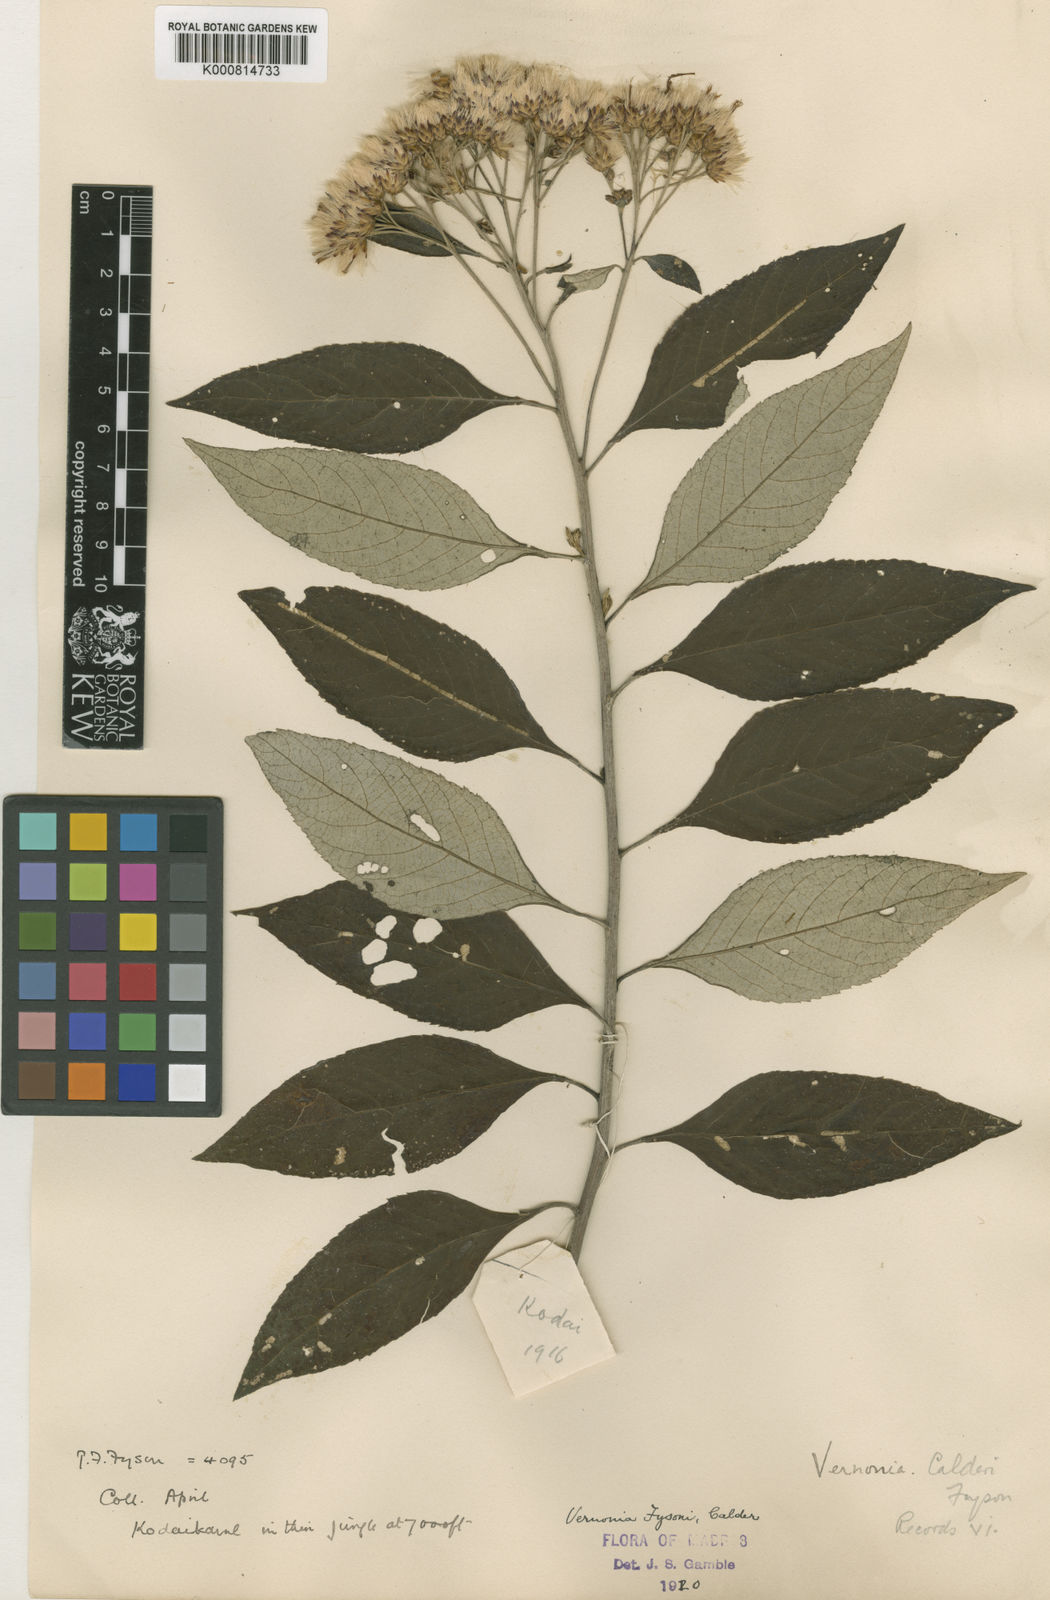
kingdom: Plantae
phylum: Tracheophyta
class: Magnoliopsida
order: Asterales
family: Asteraceae
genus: Acilepis
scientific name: Acilepis fysonii
